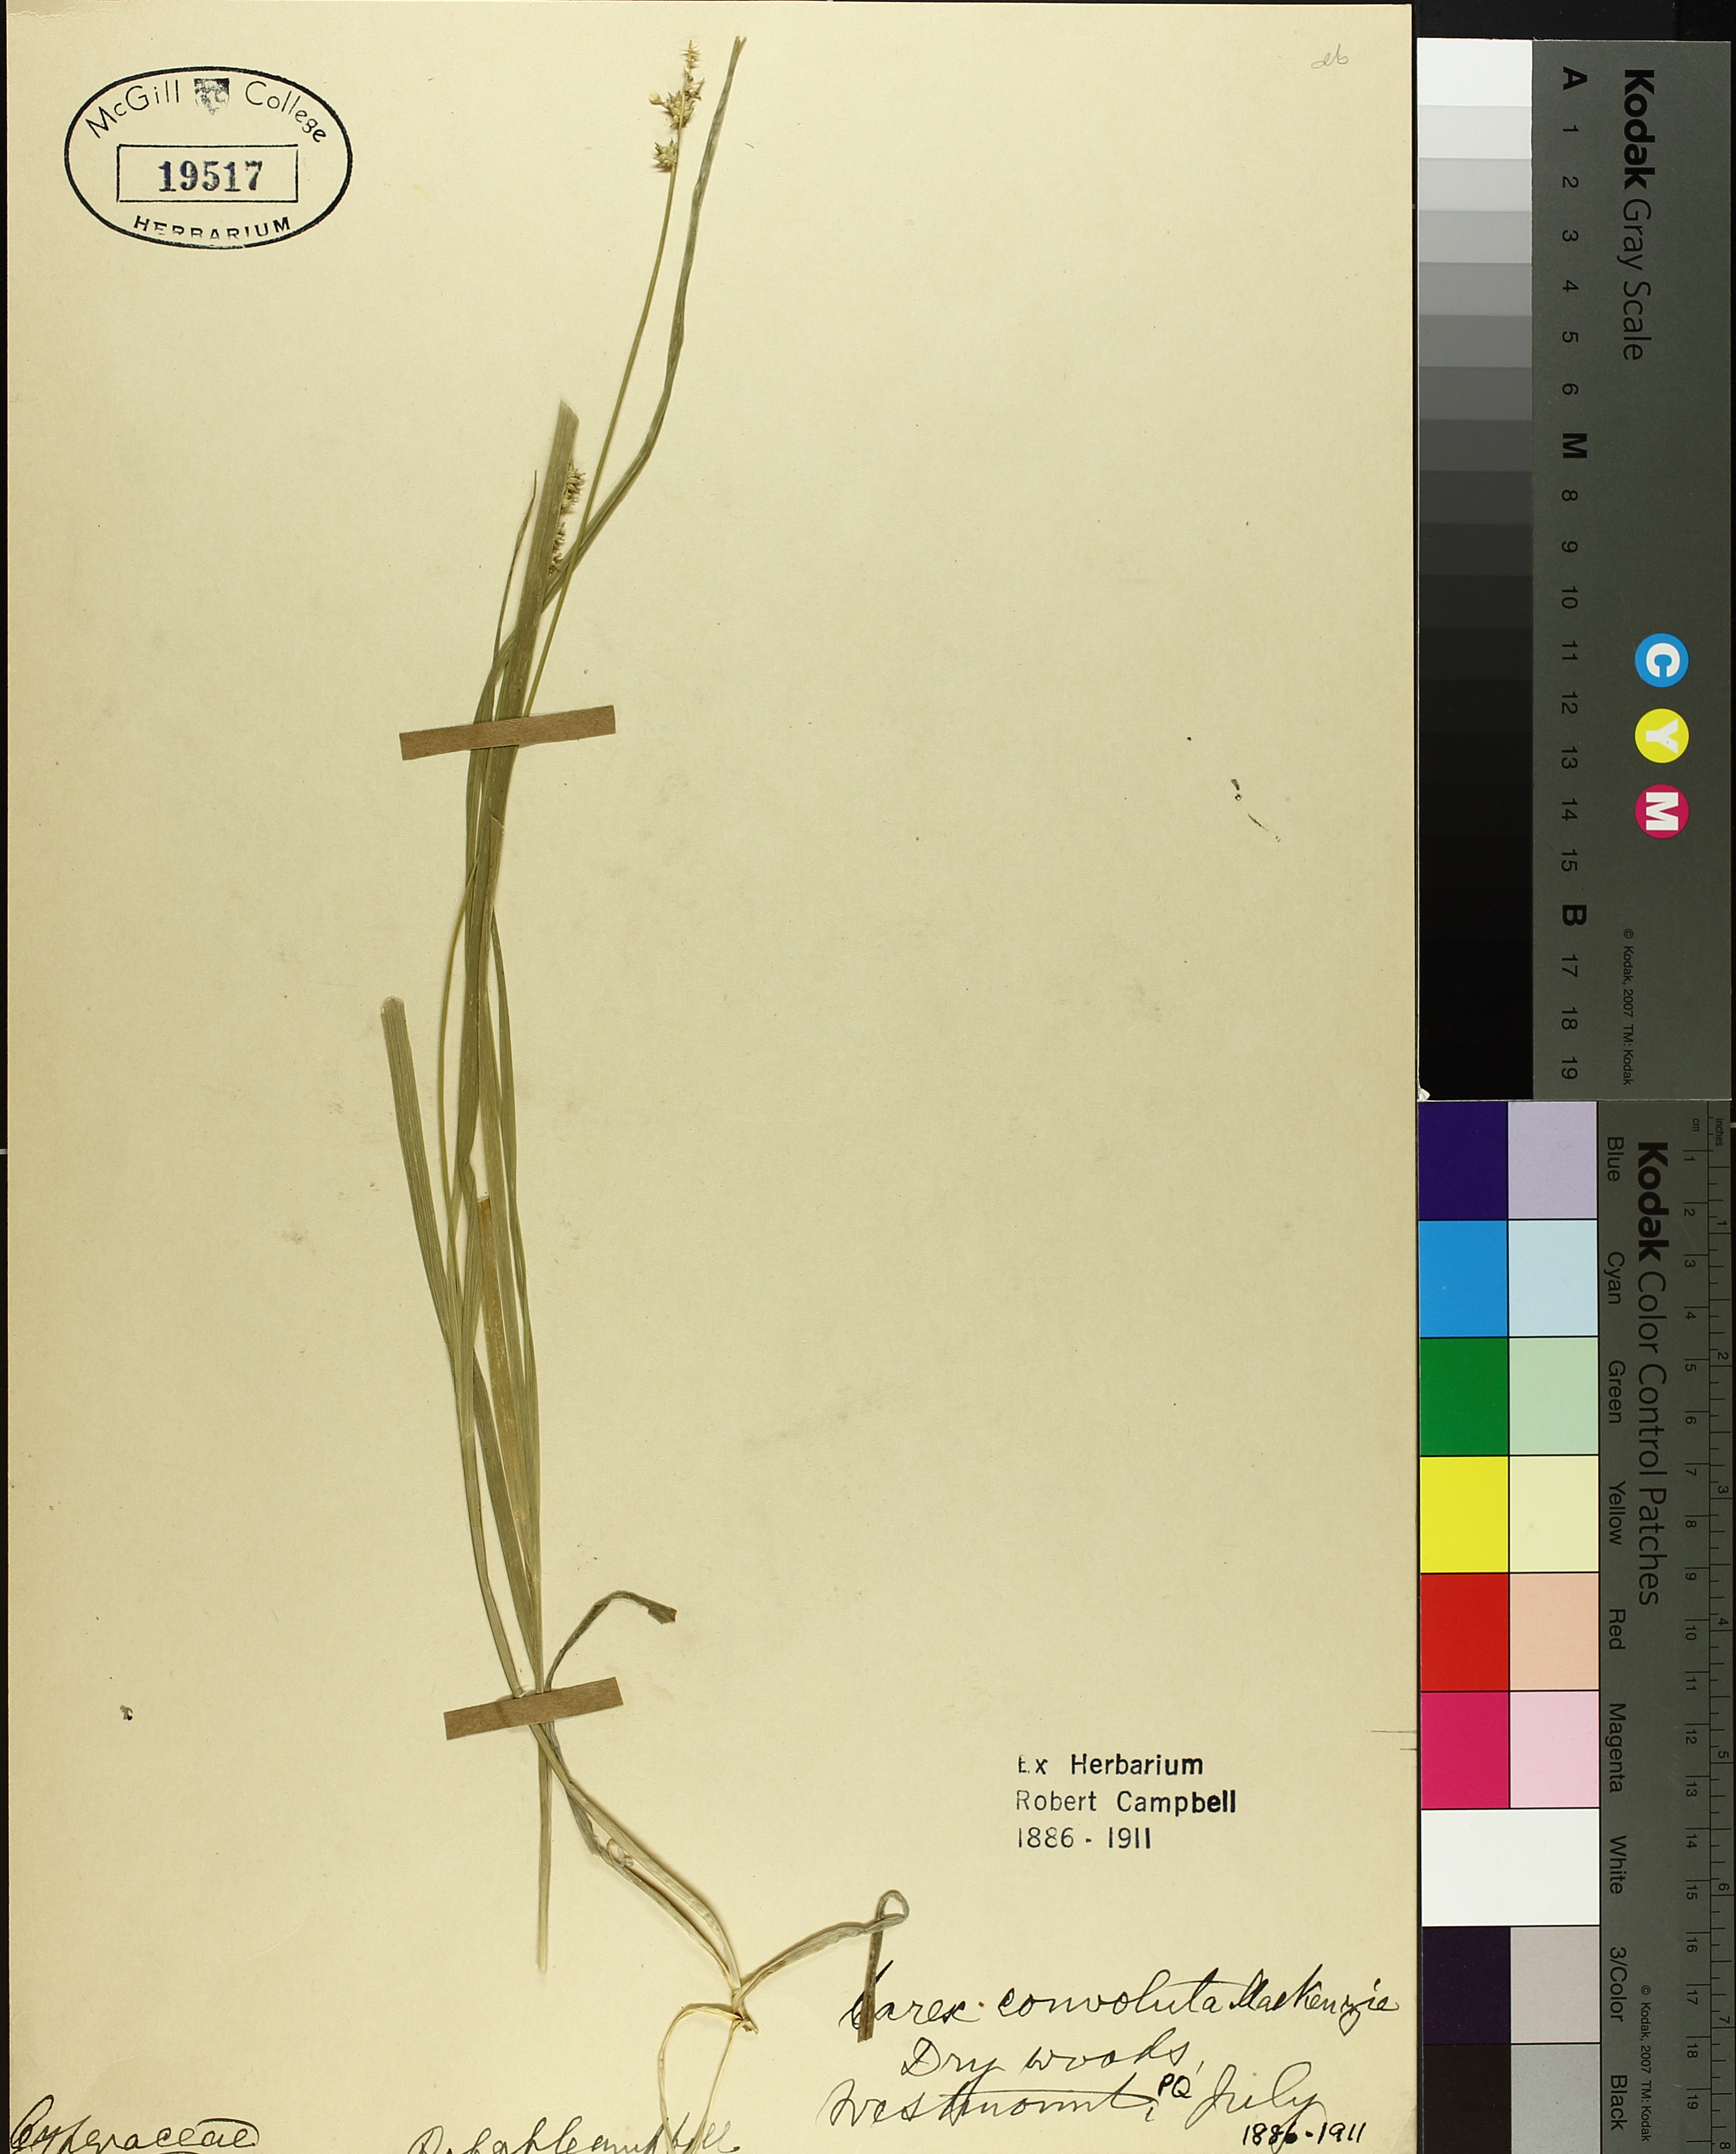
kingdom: Plantae
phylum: Tracheophyta
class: Liliopsida
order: Poales
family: Cyperaceae
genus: Carex
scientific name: Carex rosea
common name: Curly-styled wood sedge
